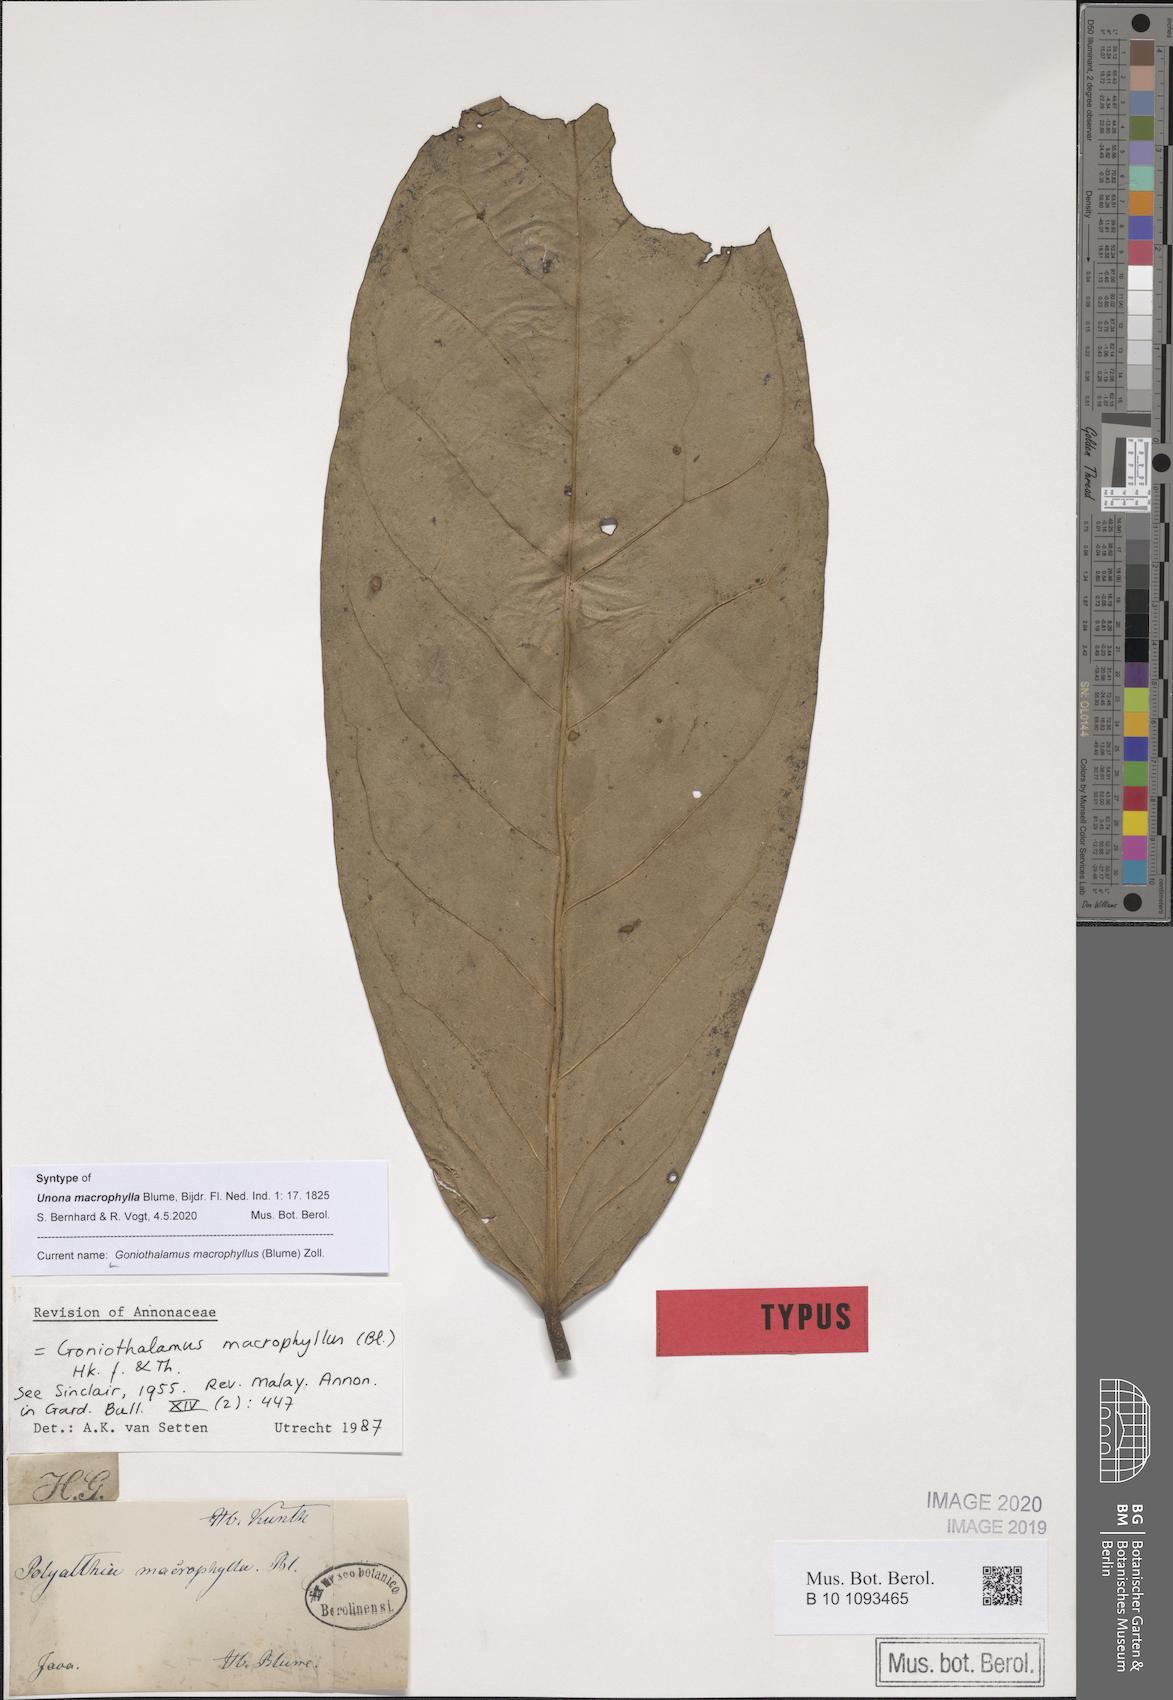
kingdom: Plantae
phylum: Tracheophyta
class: Magnoliopsida
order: Magnoliales
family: Annonaceae
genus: Goniothalamus
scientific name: Goniothalamus macrophyllus
